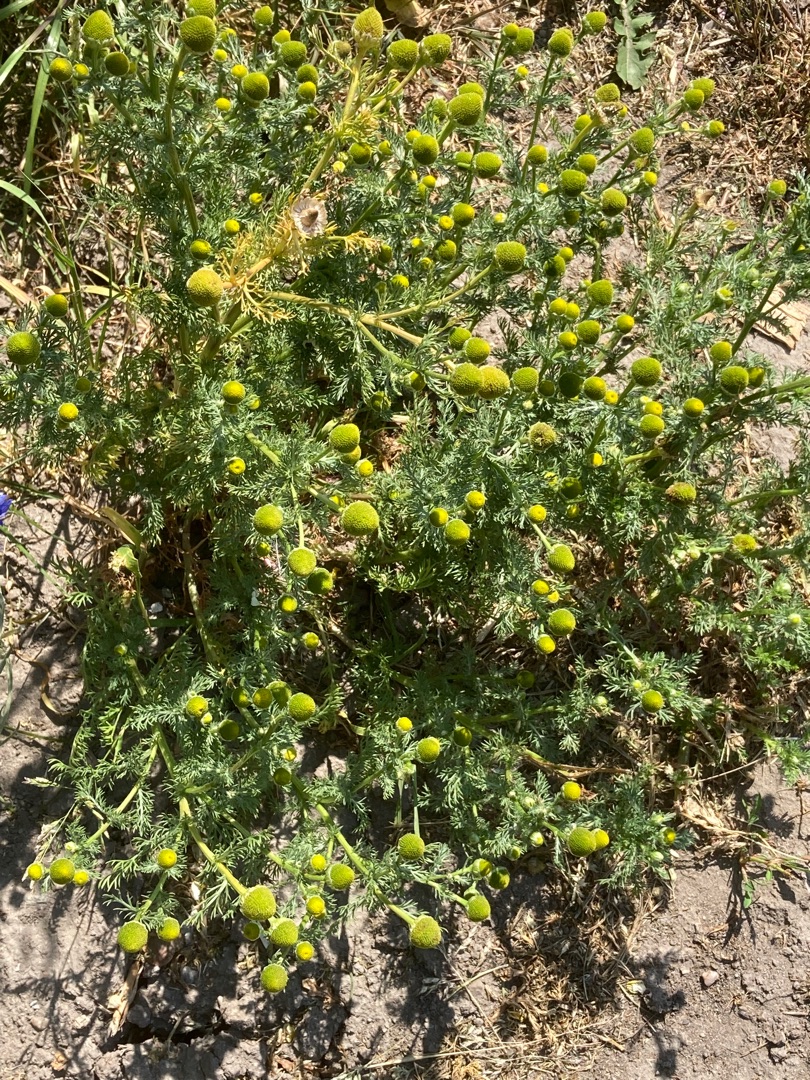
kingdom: Plantae
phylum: Tracheophyta
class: Magnoliopsida
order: Asterales
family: Asteraceae
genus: Matricaria
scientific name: Matricaria discoidea
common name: Skive-kamille
